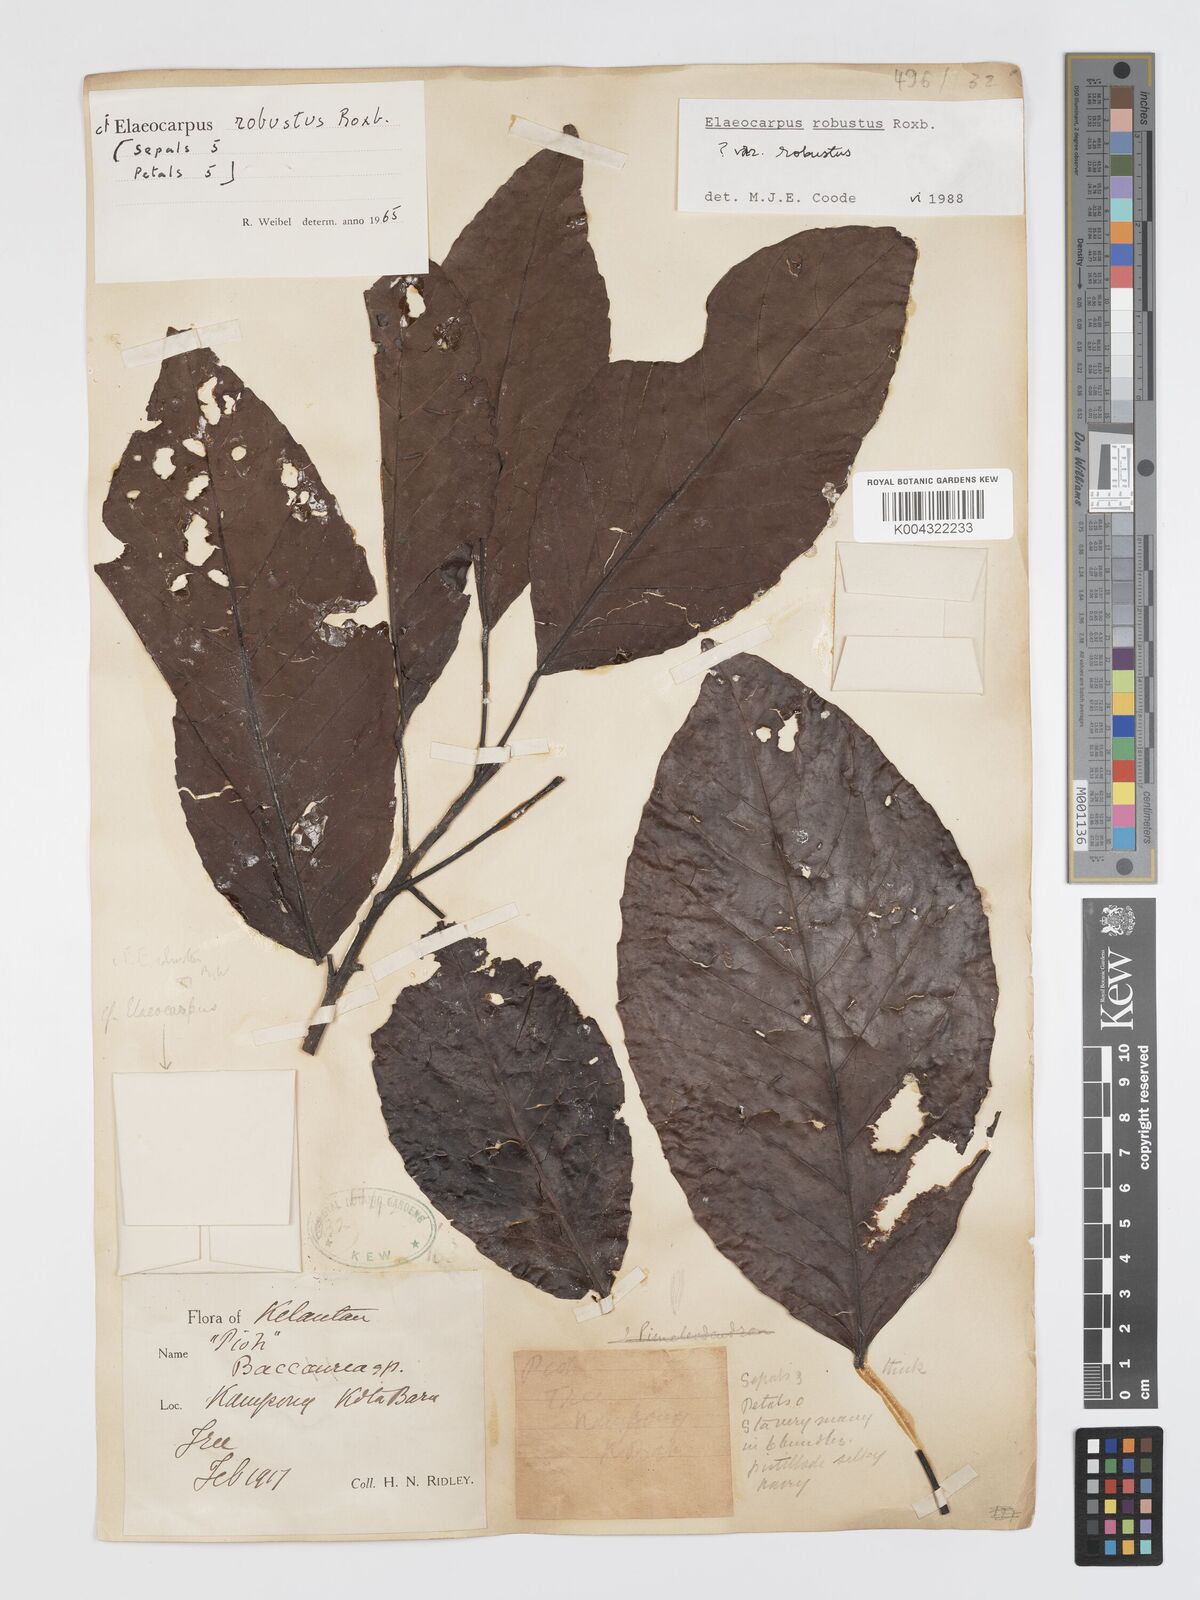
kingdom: Plantae
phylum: Tracheophyta
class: Magnoliopsida
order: Oxalidales
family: Elaeocarpaceae
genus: Elaeocarpus
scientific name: Elaeocarpus robustus
